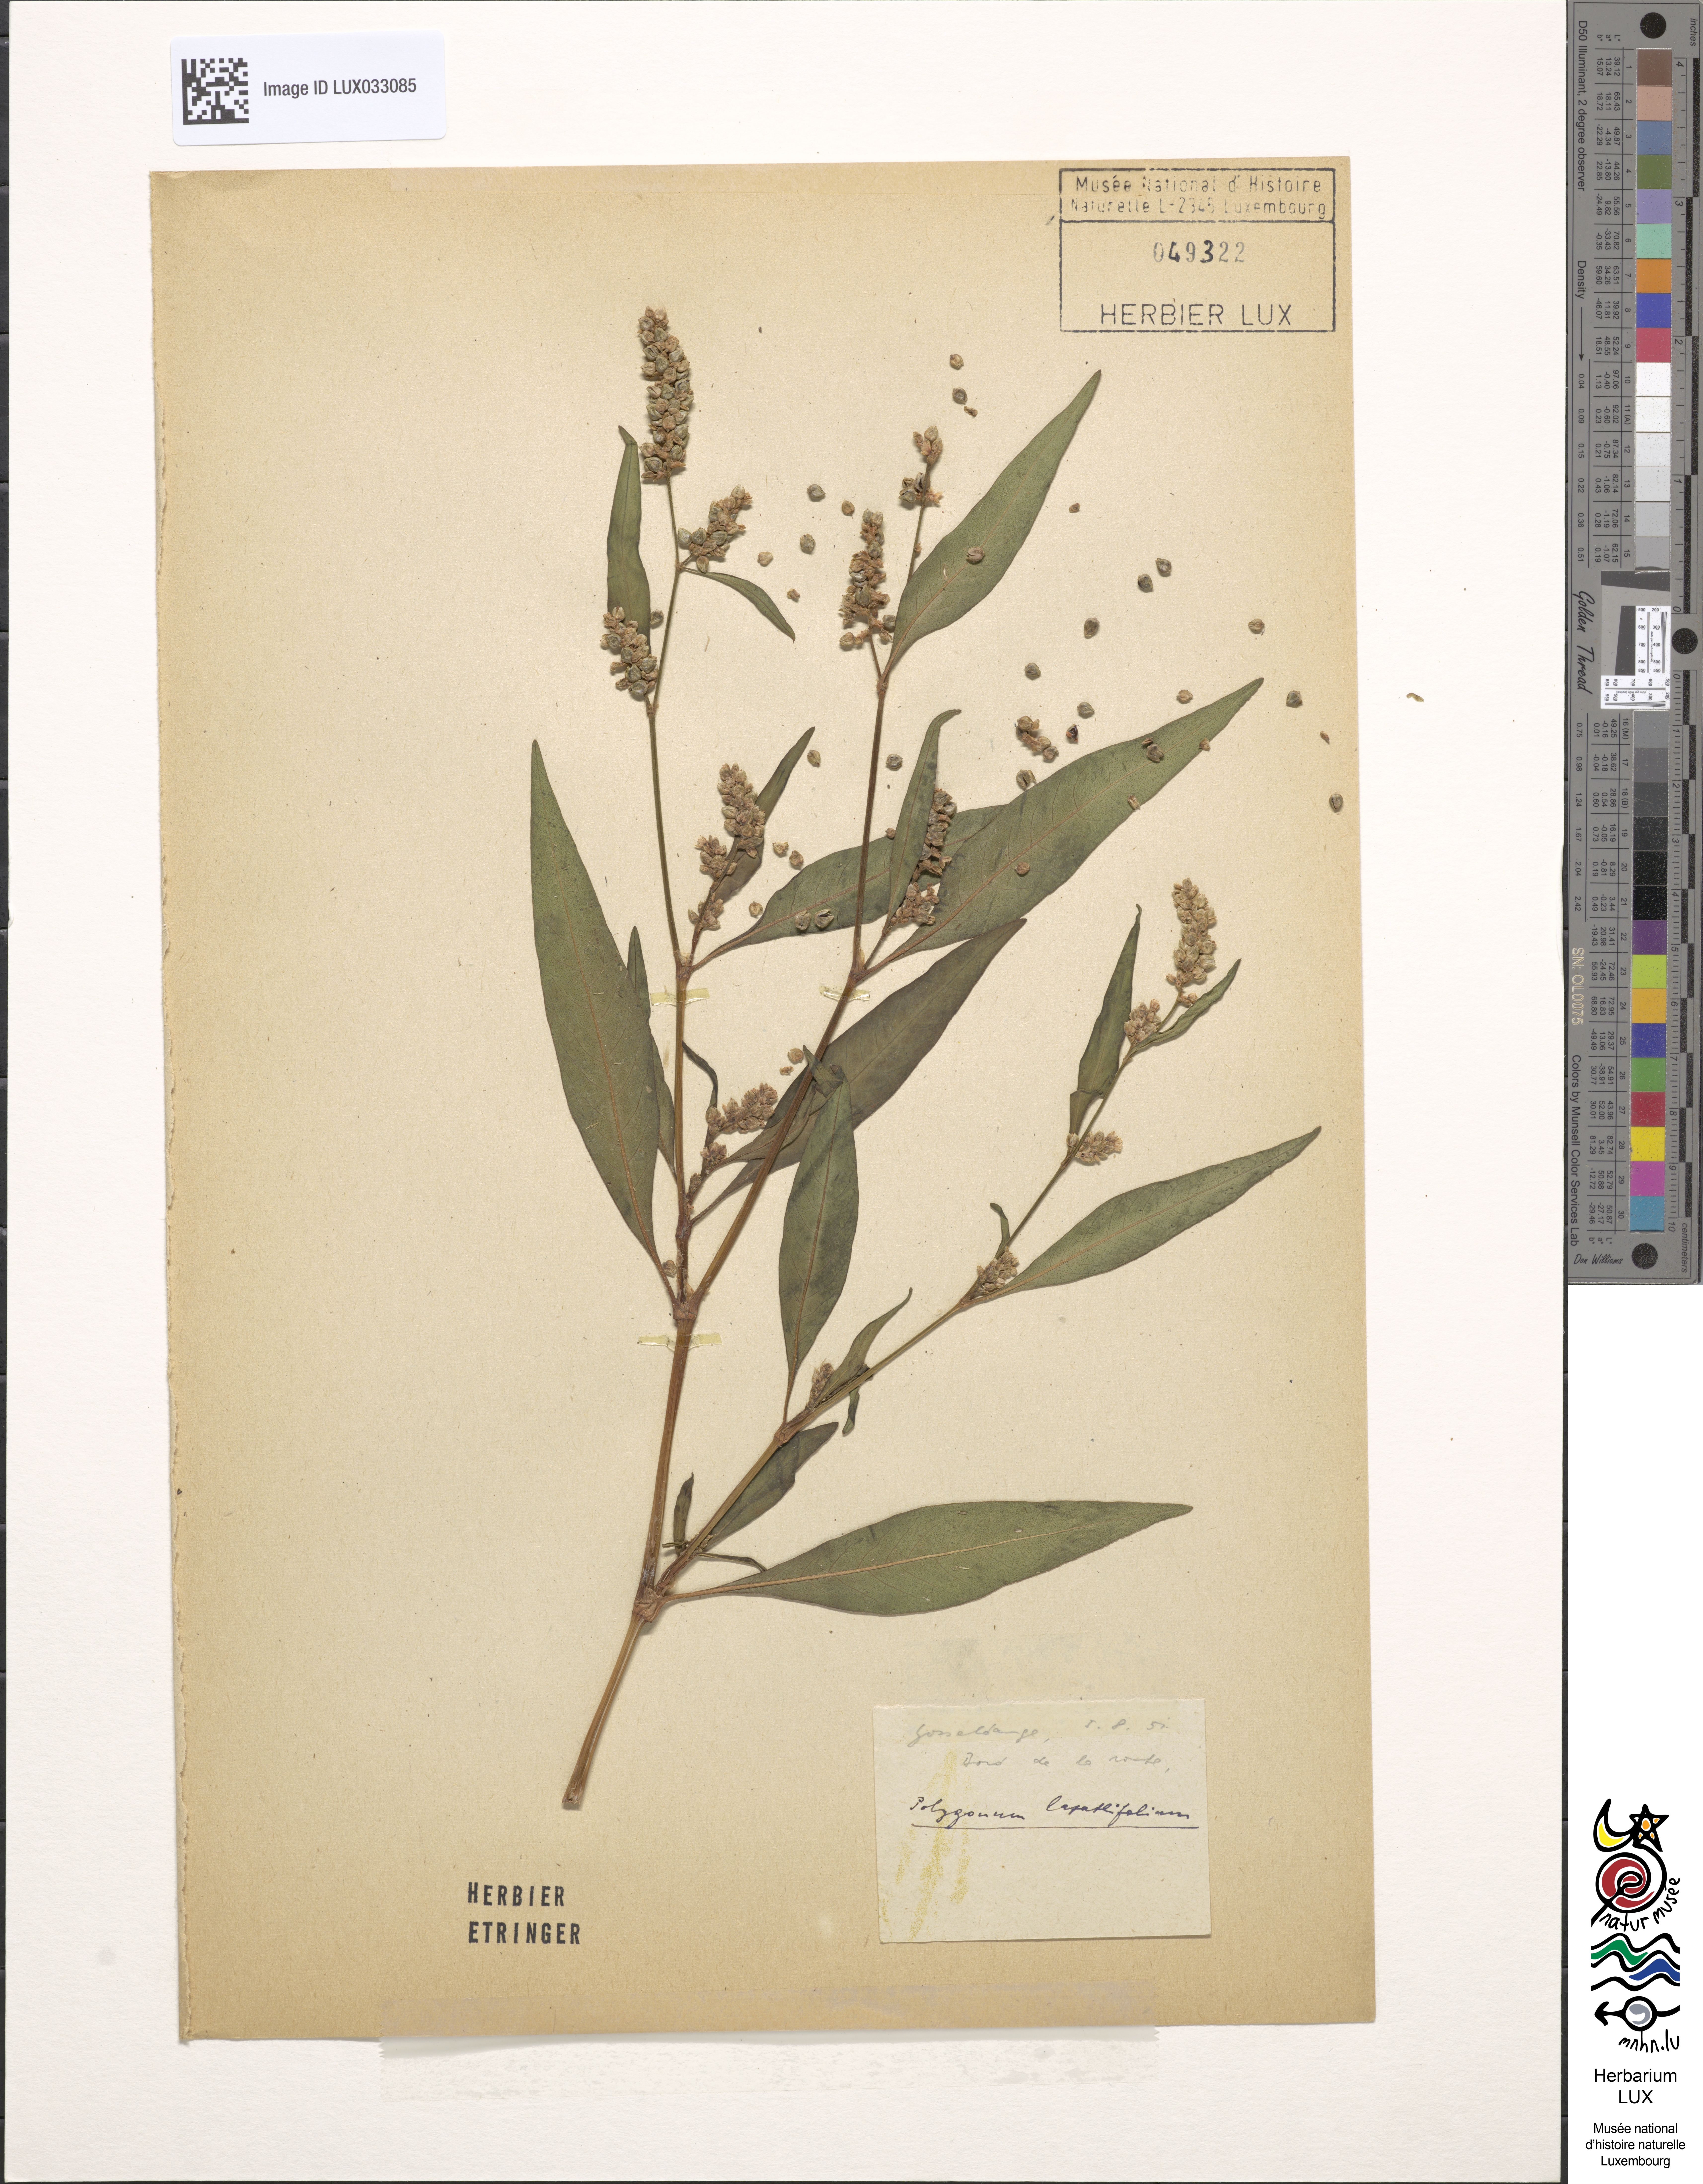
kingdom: Plantae
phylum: Tracheophyta
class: Magnoliopsida
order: Caryophyllales
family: Polygonaceae
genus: Persicaria
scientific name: Persicaria lapathifolia
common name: Curlytop knotweed
